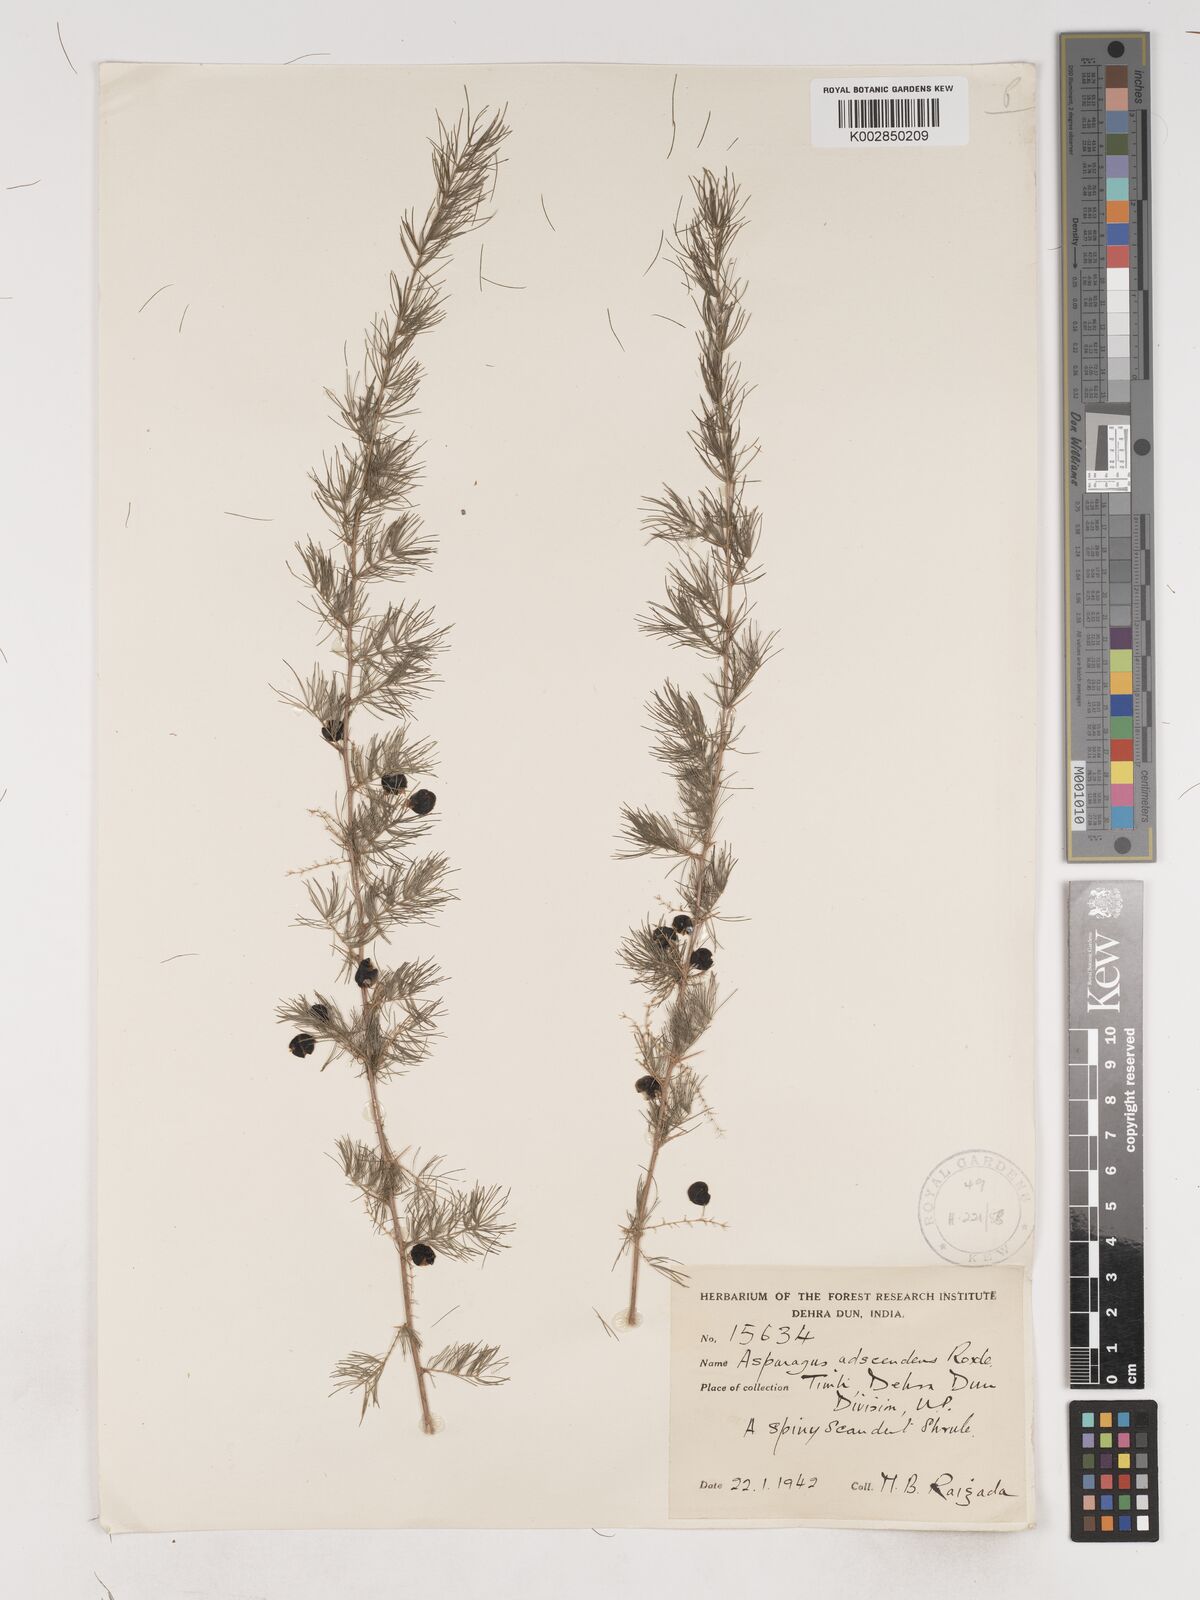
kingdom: Plantae
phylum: Tracheophyta
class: Liliopsida
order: Asparagales
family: Asparagaceae
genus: Asparagus
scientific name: Asparagus adscendens
